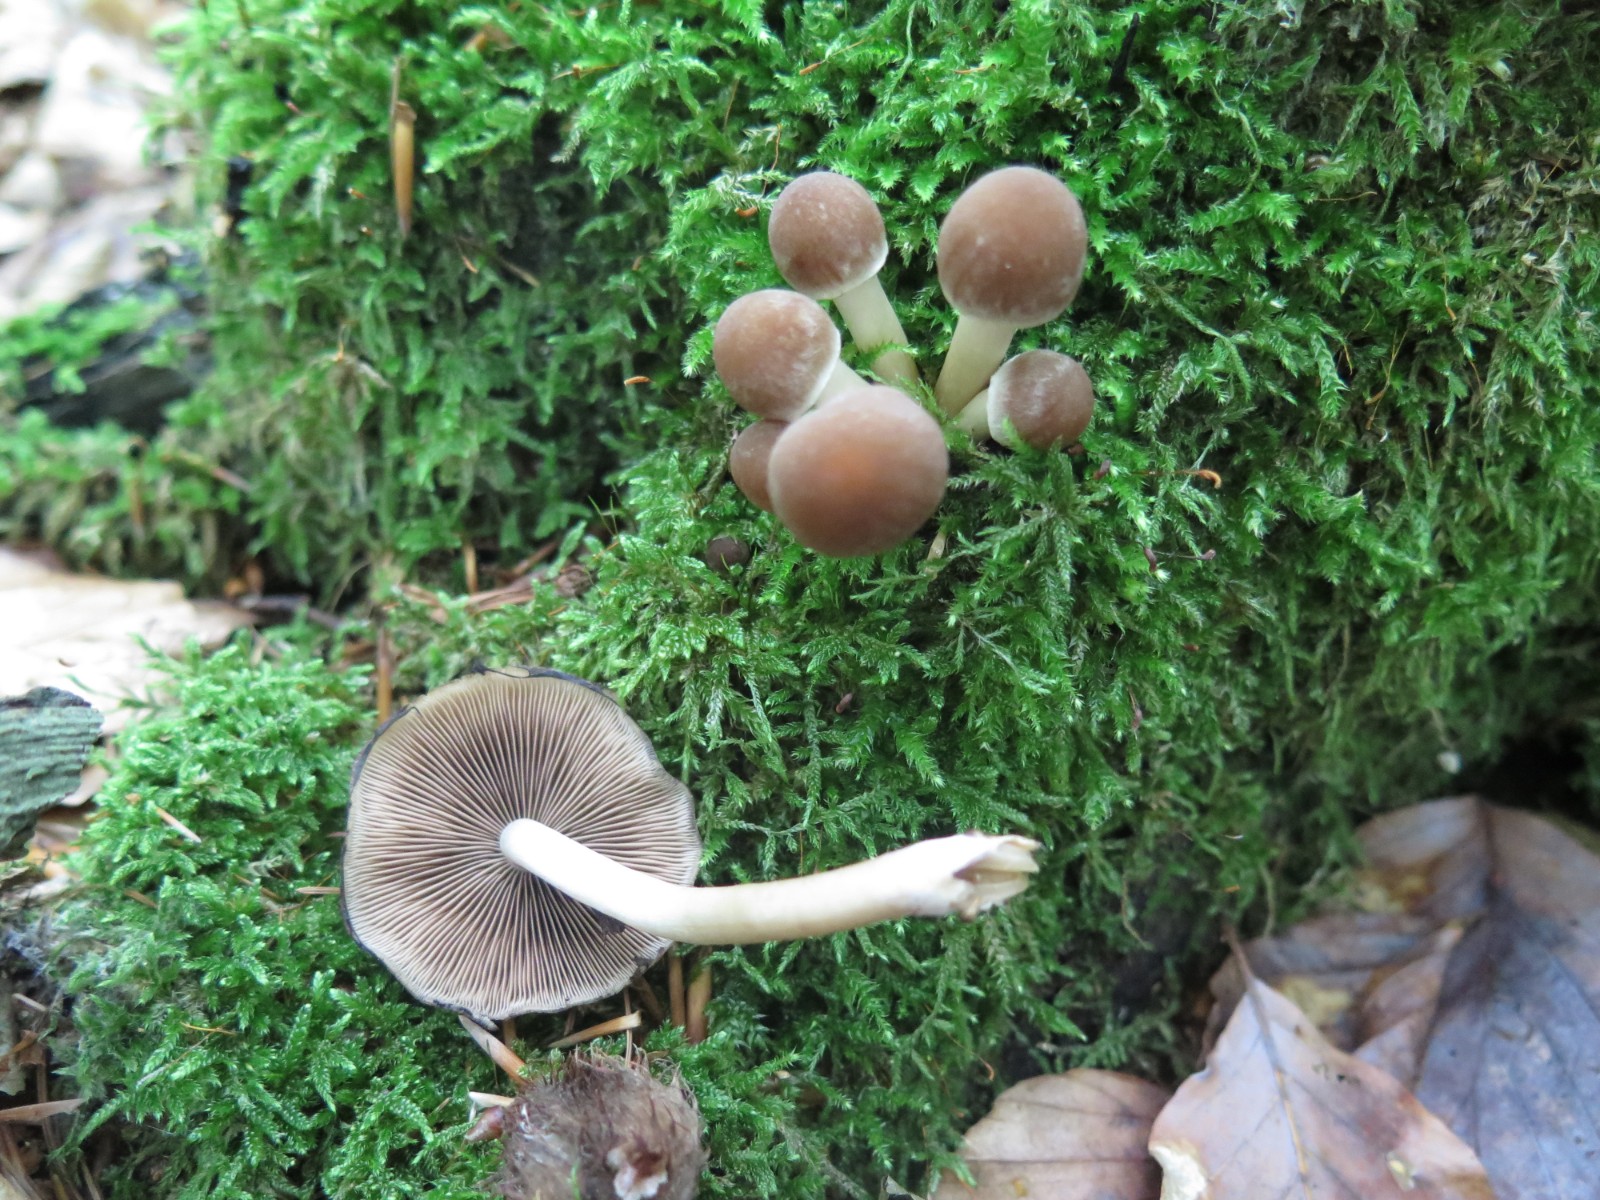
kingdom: Fungi
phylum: Basidiomycota
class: Agaricomycetes
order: Agaricales
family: Psathyrellaceae
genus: Psathyrella
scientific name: Psathyrella piluliformis
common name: lysstokket mørkhat
